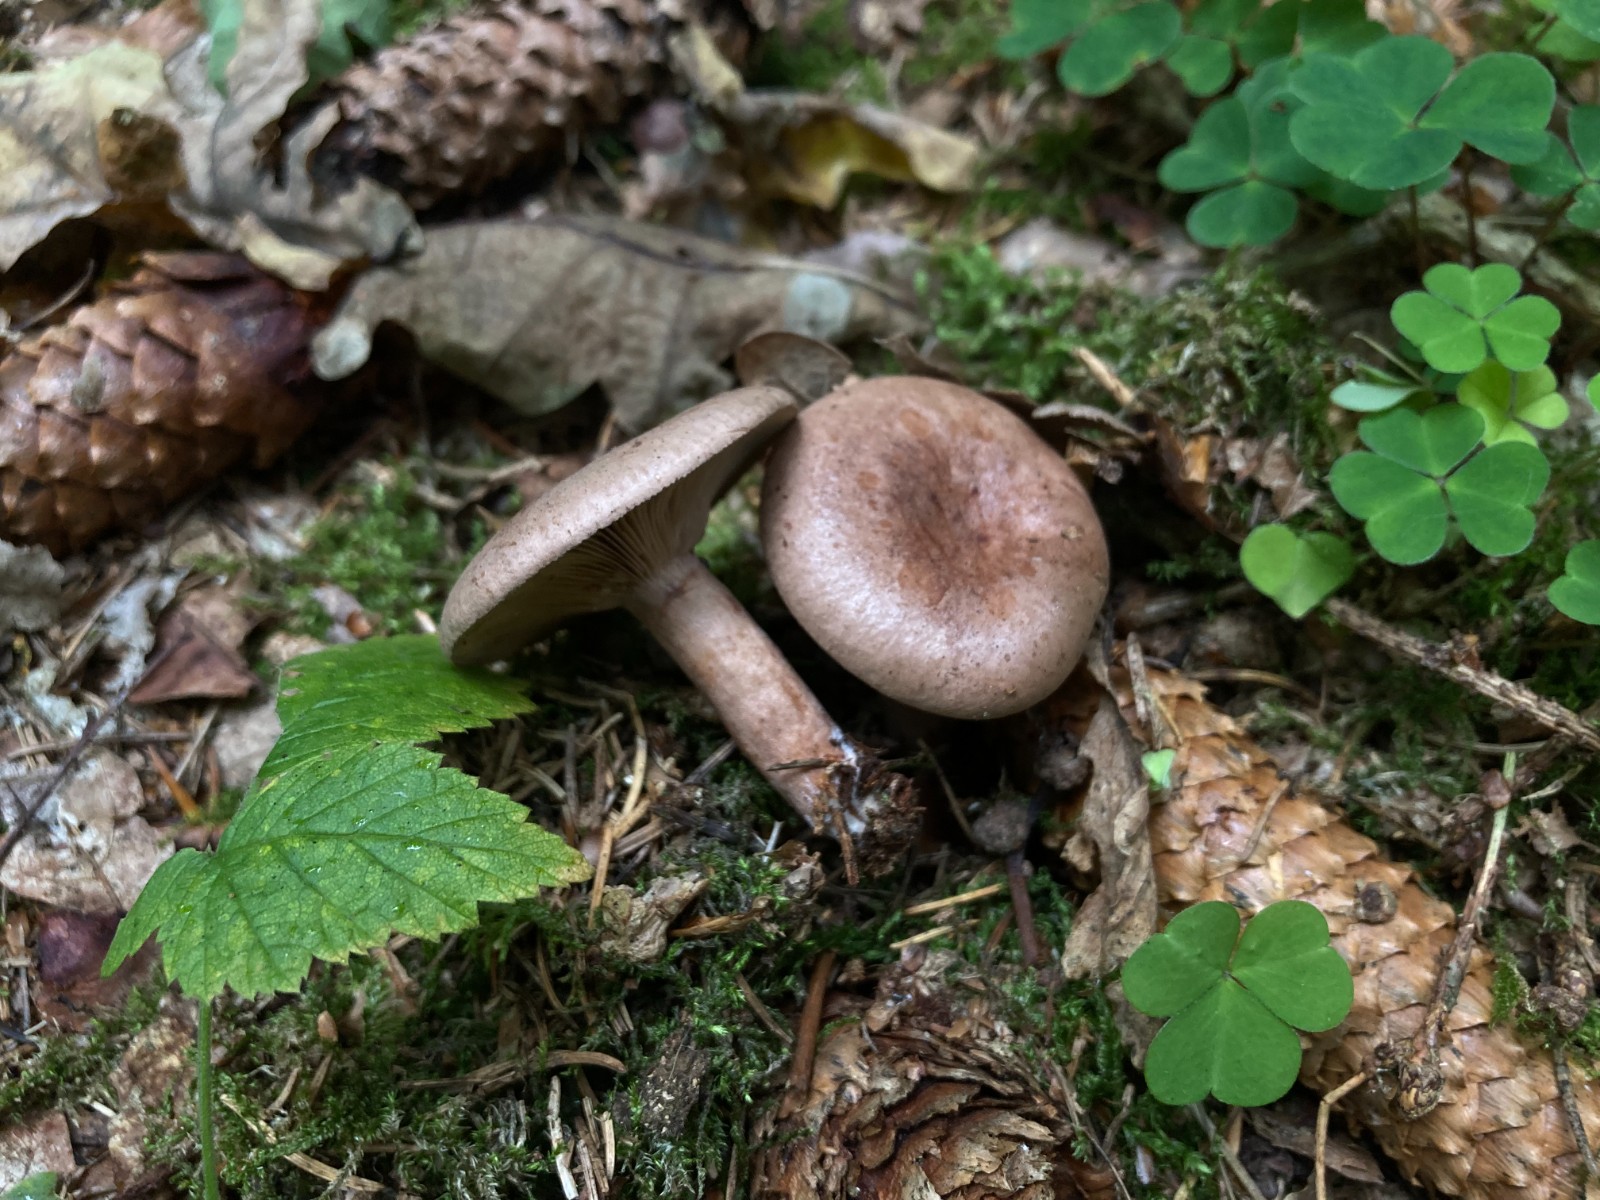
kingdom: Fungi
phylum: Basidiomycota
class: Agaricomycetes
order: Russulales
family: Russulaceae
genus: Lactarius
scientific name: Lactarius quietus
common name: ege-mælkehat
